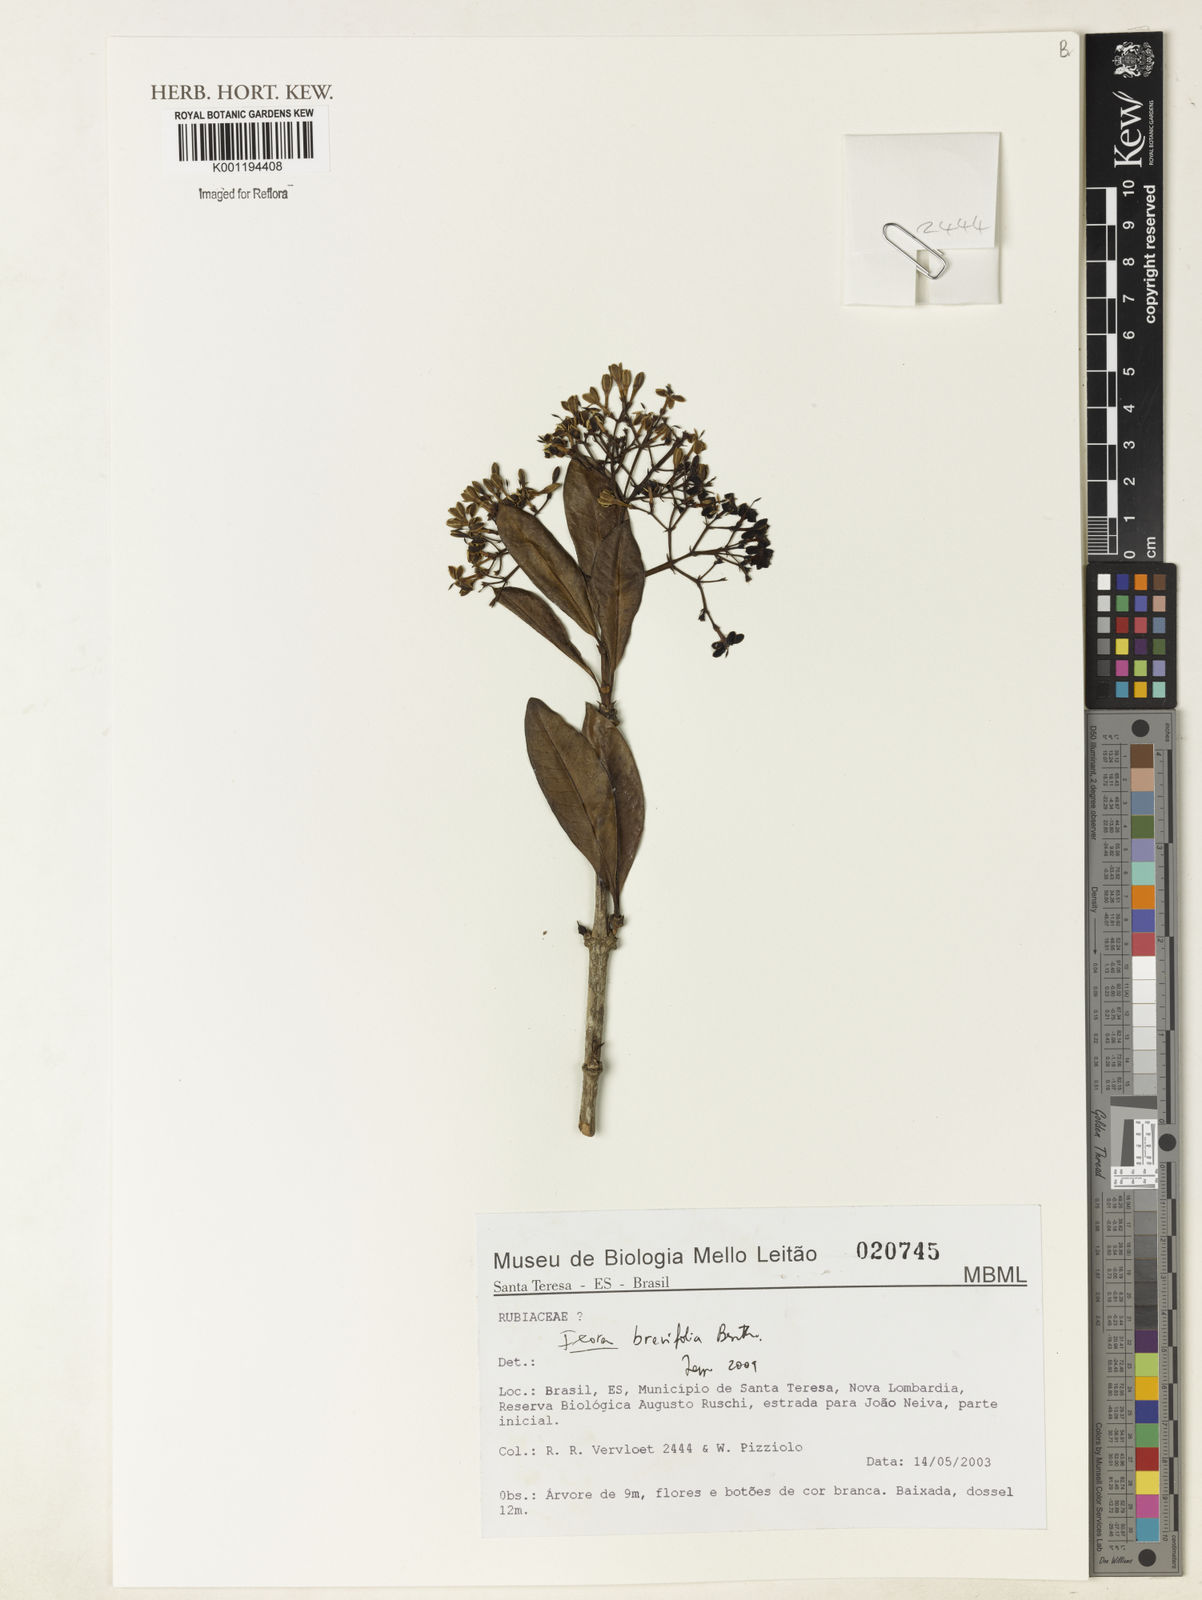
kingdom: Plantae
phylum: Tracheophyta
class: Magnoliopsida
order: Gentianales
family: Rubiaceae
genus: Ixora
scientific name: Ixora brevifolia
